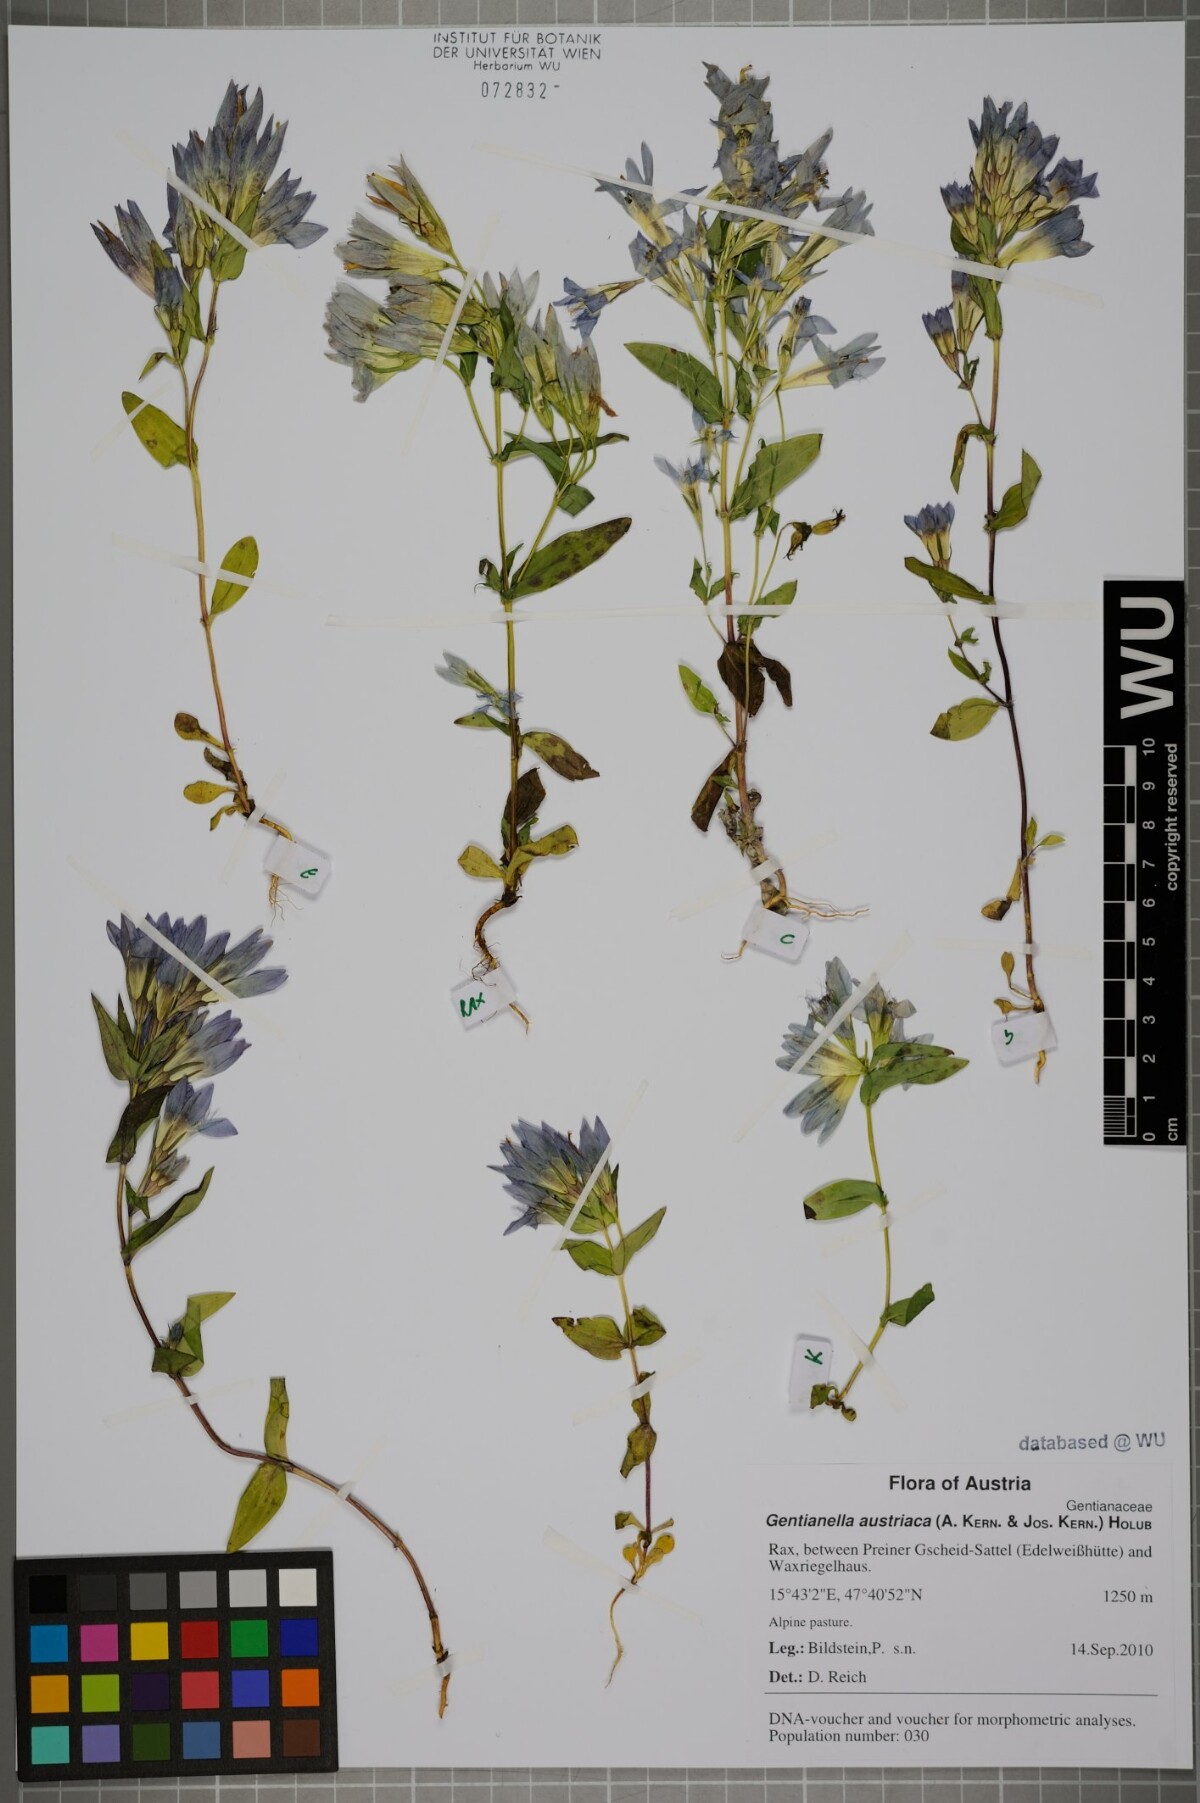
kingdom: Plantae
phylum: Tracheophyta
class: Magnoliopsida
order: Gentianales
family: Gentianaceae
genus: Gentianella
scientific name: Gentianella austriaca
